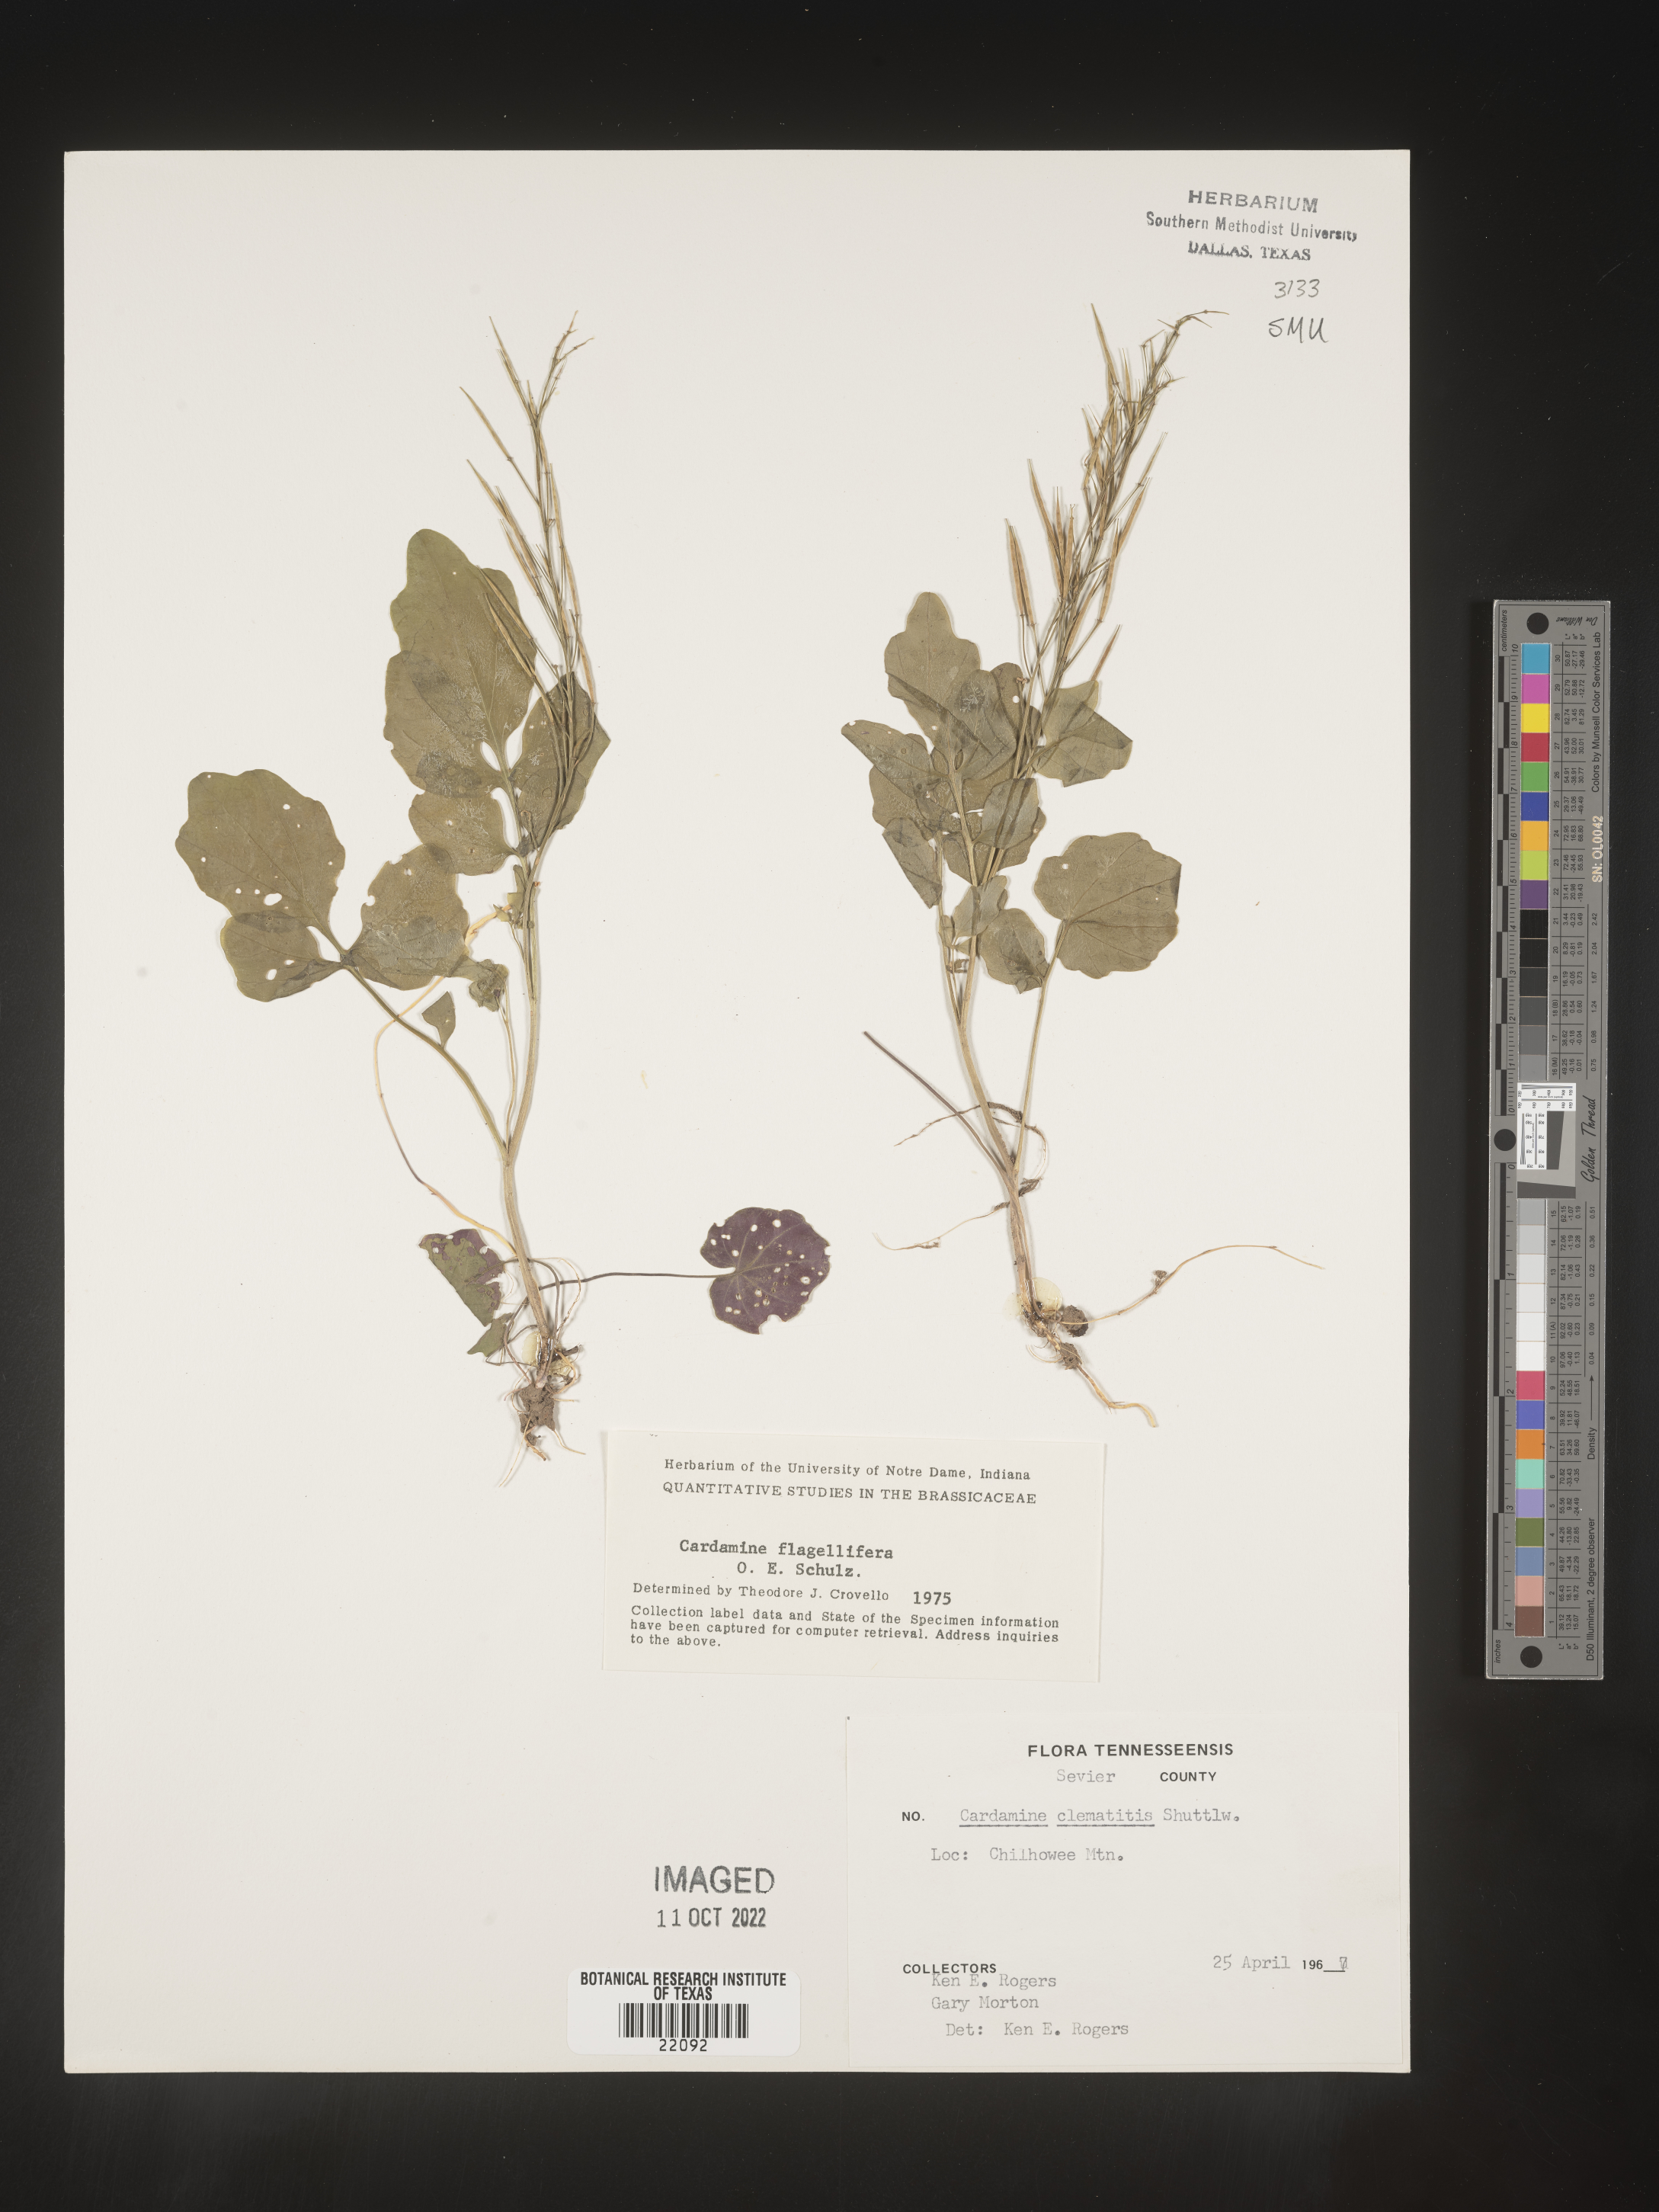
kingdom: Plantae
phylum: Tracheophyta
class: Magnoliopsida
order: Brassicales
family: Brassicaceae
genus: Cardamine
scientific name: Cardamine
